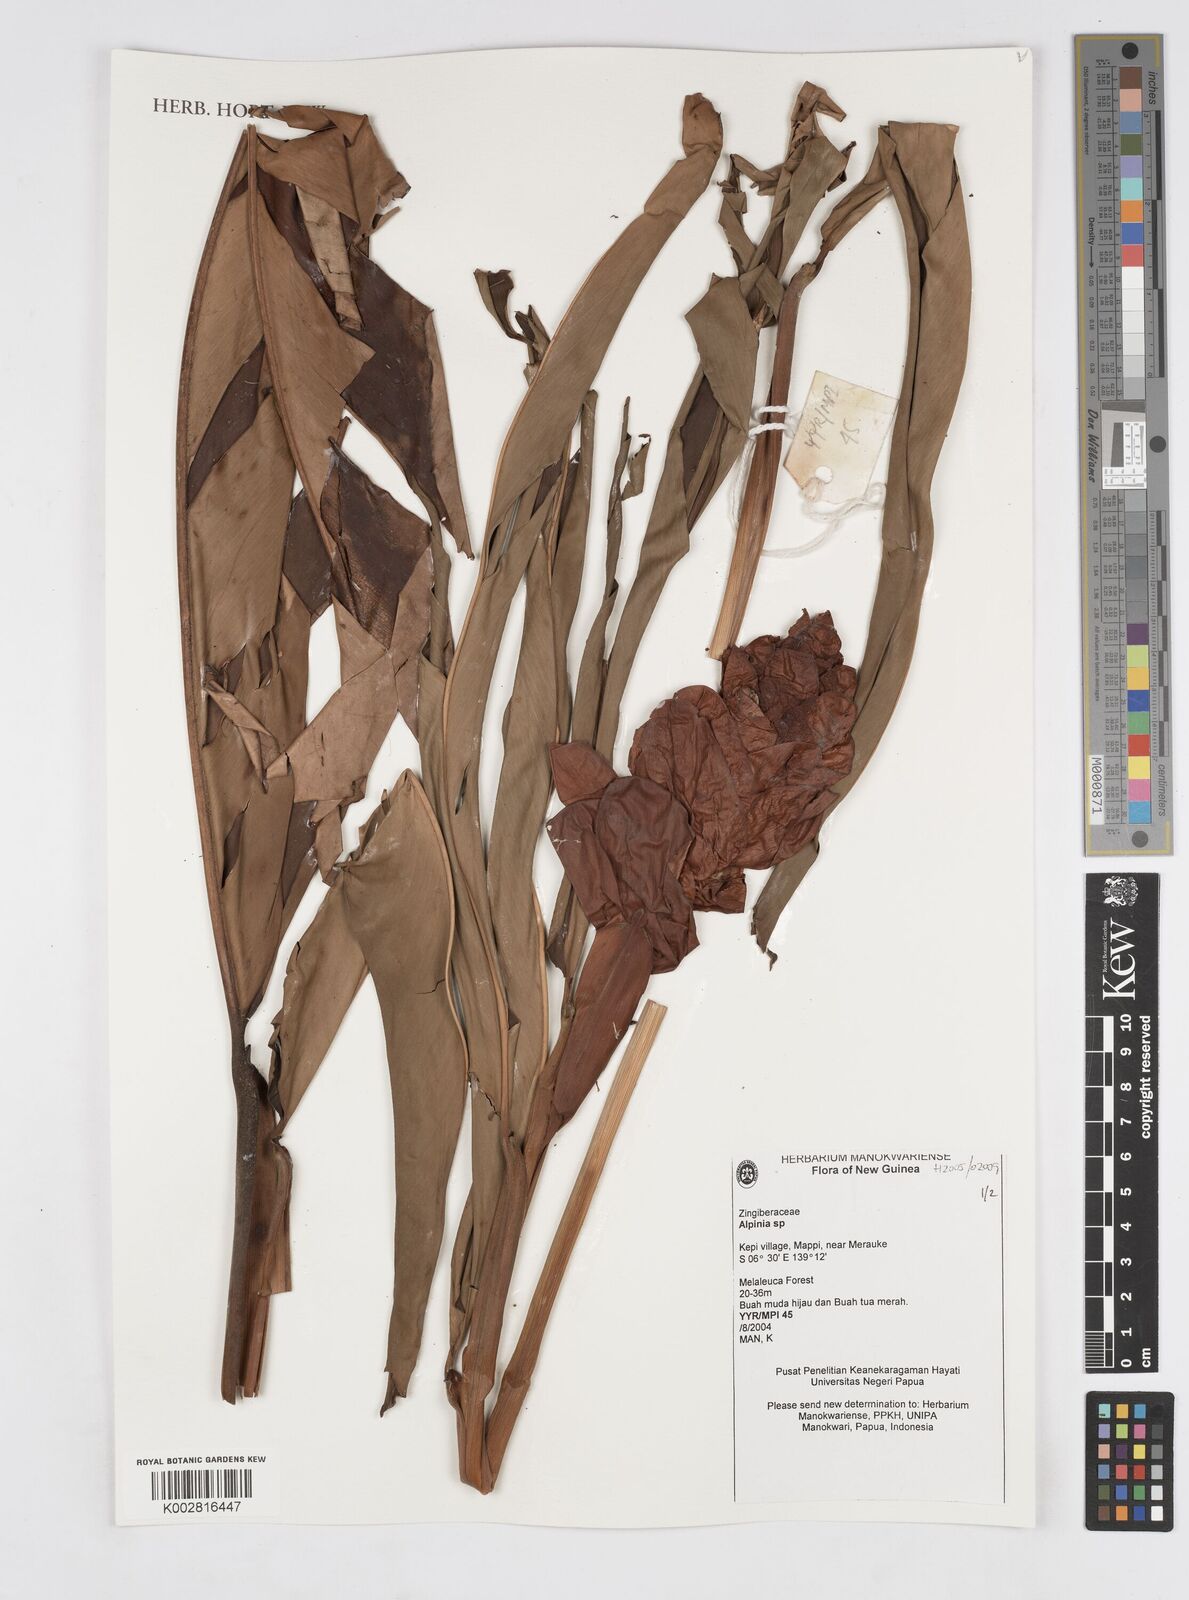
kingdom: Plantae
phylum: Tracheophyta
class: Liliopsida
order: Zingiberales
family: Zingiberaceae
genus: Alpinia
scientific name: Alpinia
